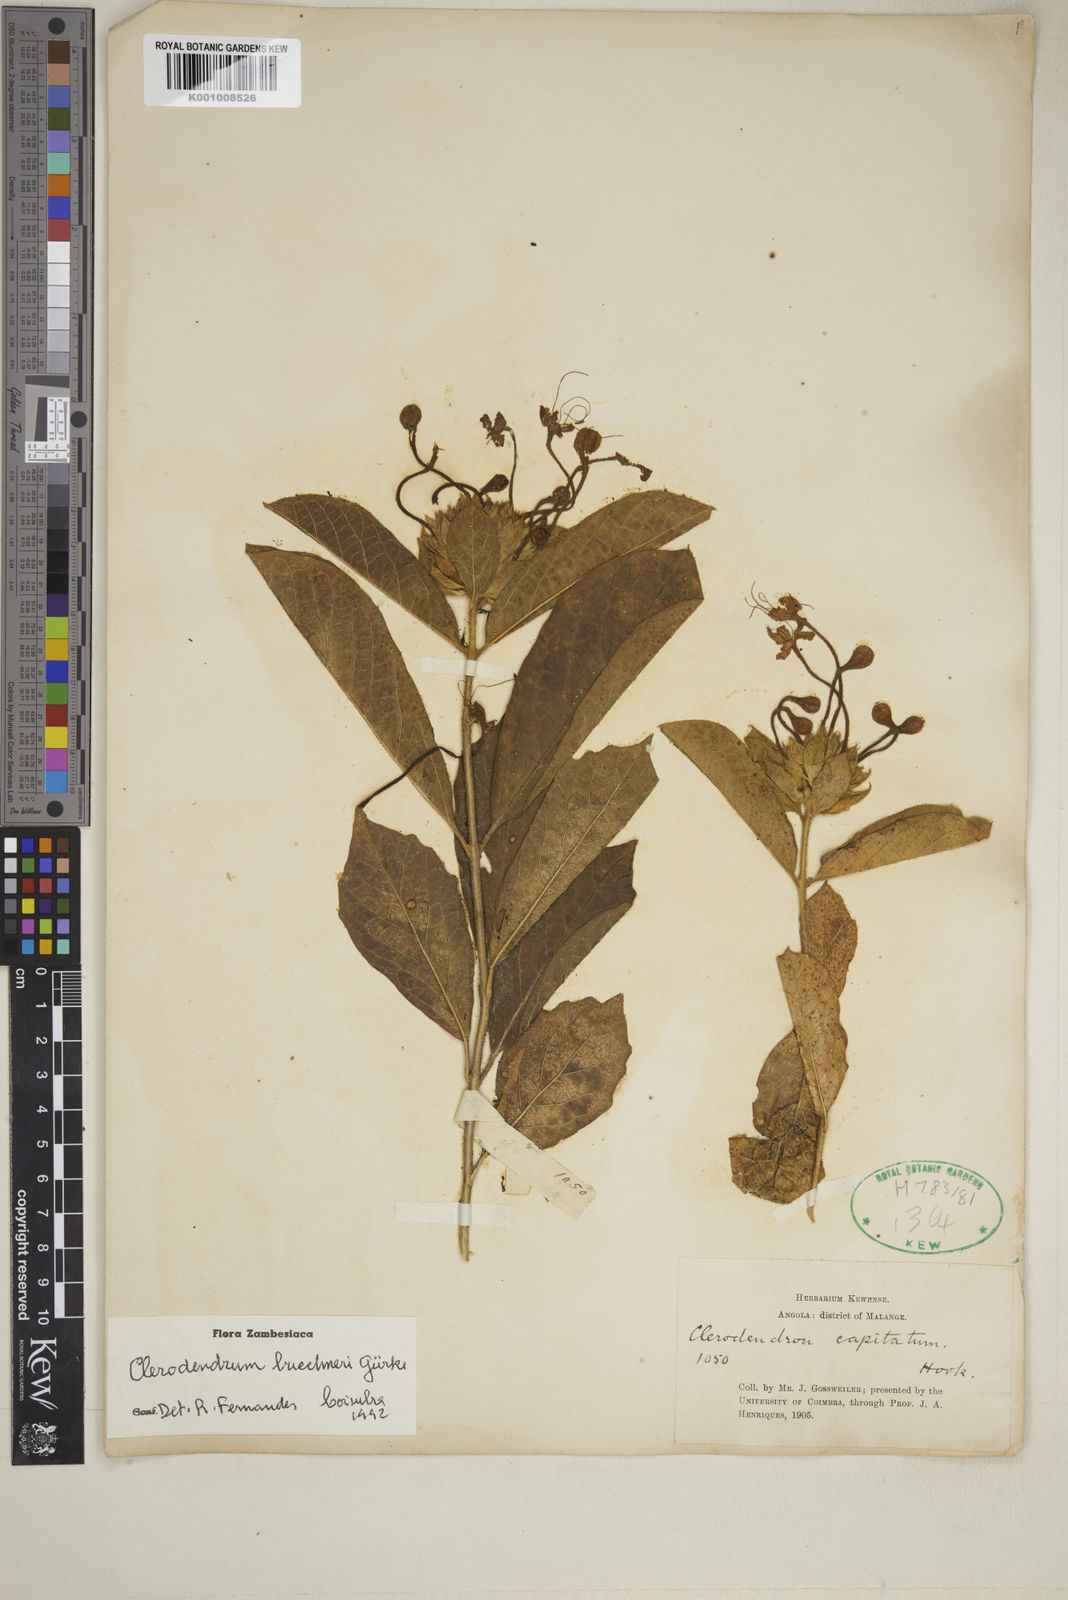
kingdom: Plantae
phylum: Tracheophyta
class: Magnoliopsida
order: Lamiales
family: Lamiaceae
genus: Clerodendrum
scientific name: Clerodendrum
